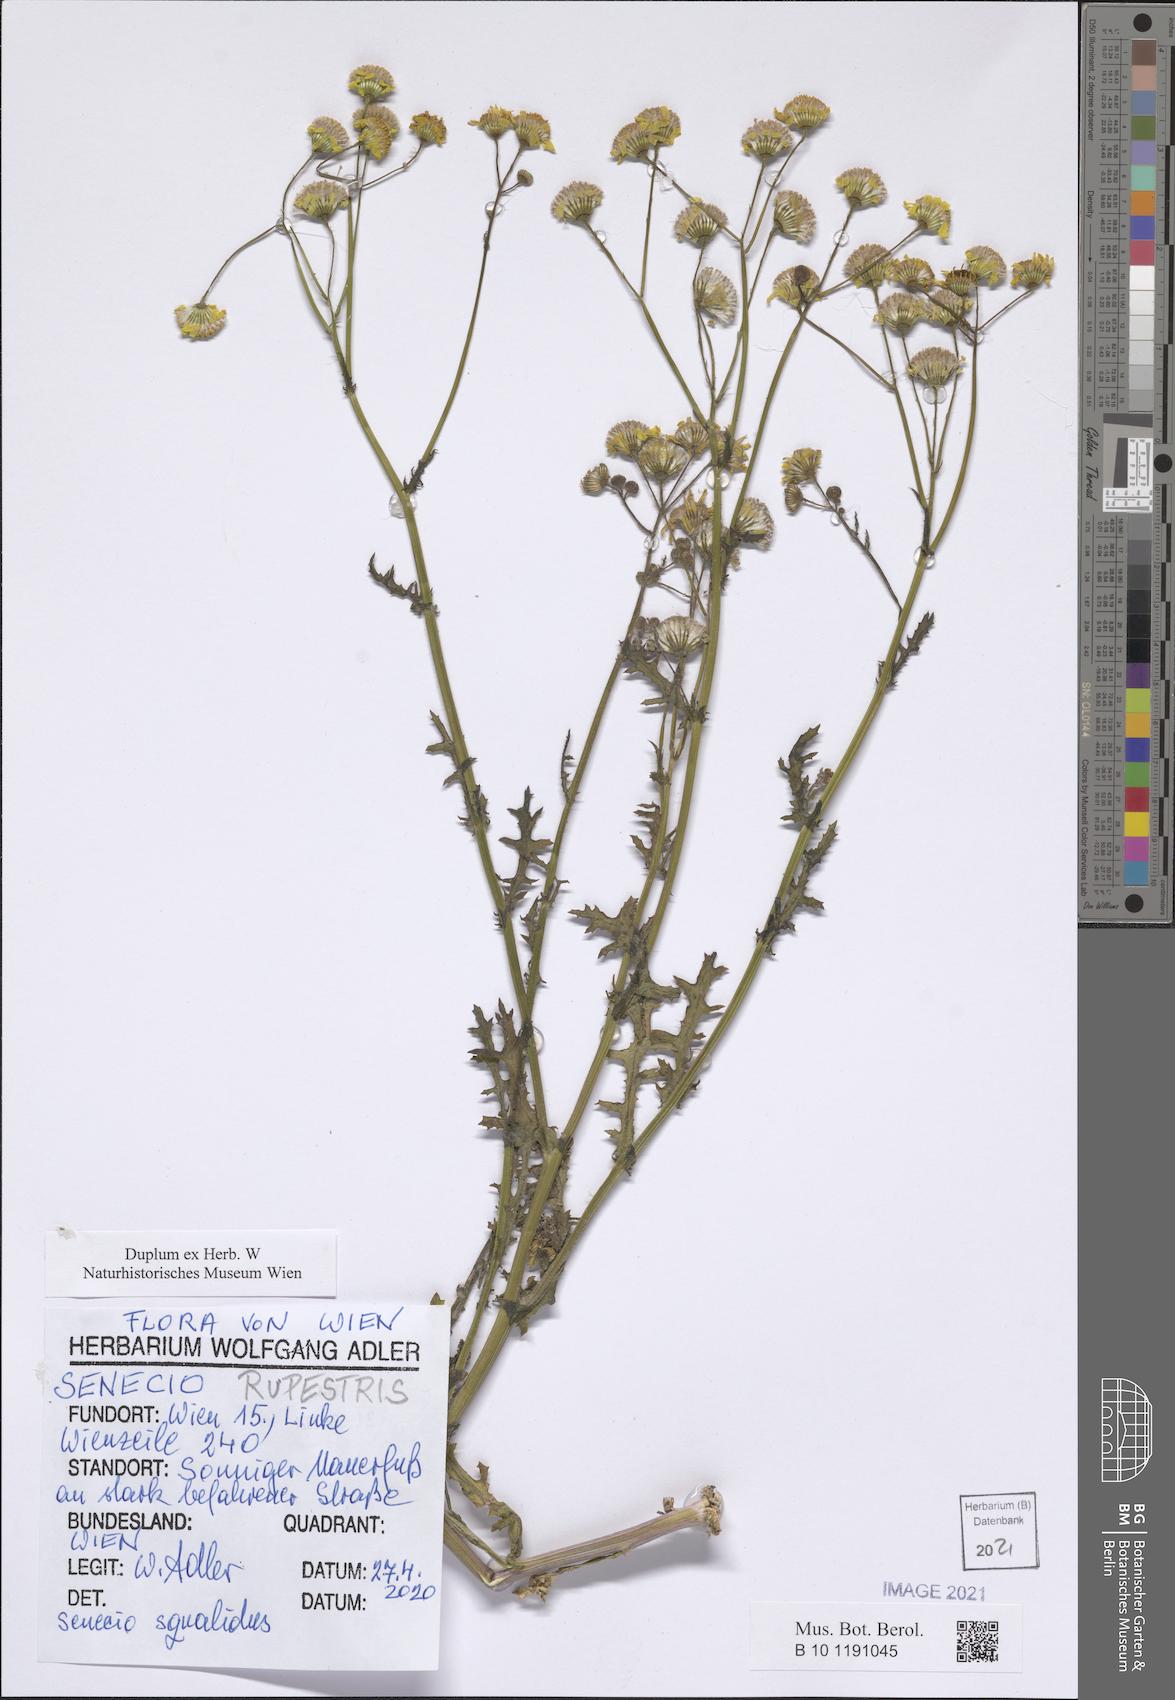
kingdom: Plantae
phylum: Tracheophyta
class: Magnoliopsida
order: Asterales
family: Asteraceae
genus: Senecio
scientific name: Senecio rupestris
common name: Rock ragwort
